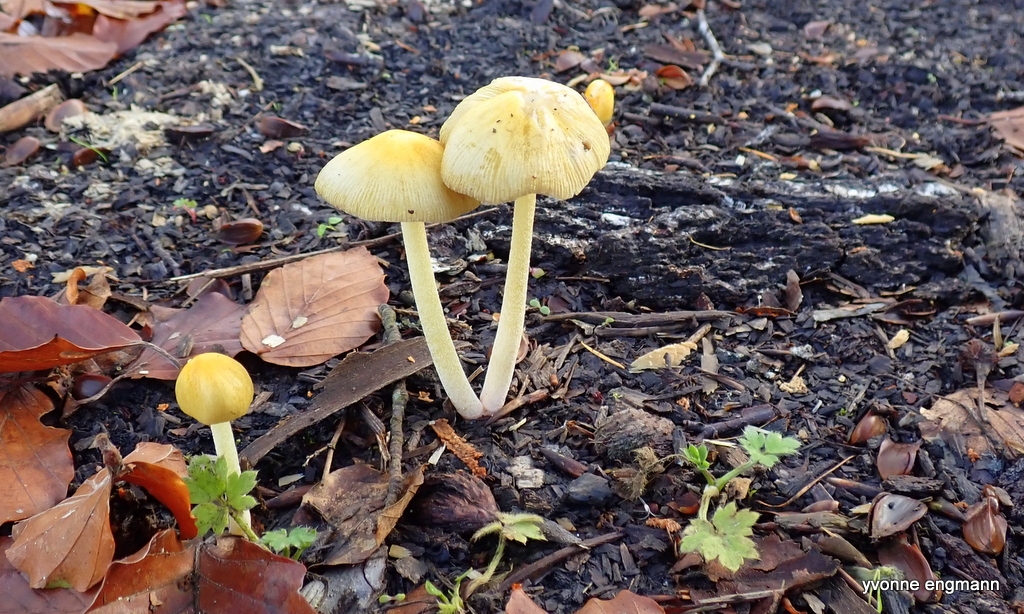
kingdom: Fungi
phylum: Basidiomycota
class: Agaricomycetes
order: Agaricales
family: Bolbitiaceae
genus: Bolbitius
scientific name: Bolbitius titubans
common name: almindelig gulhat
